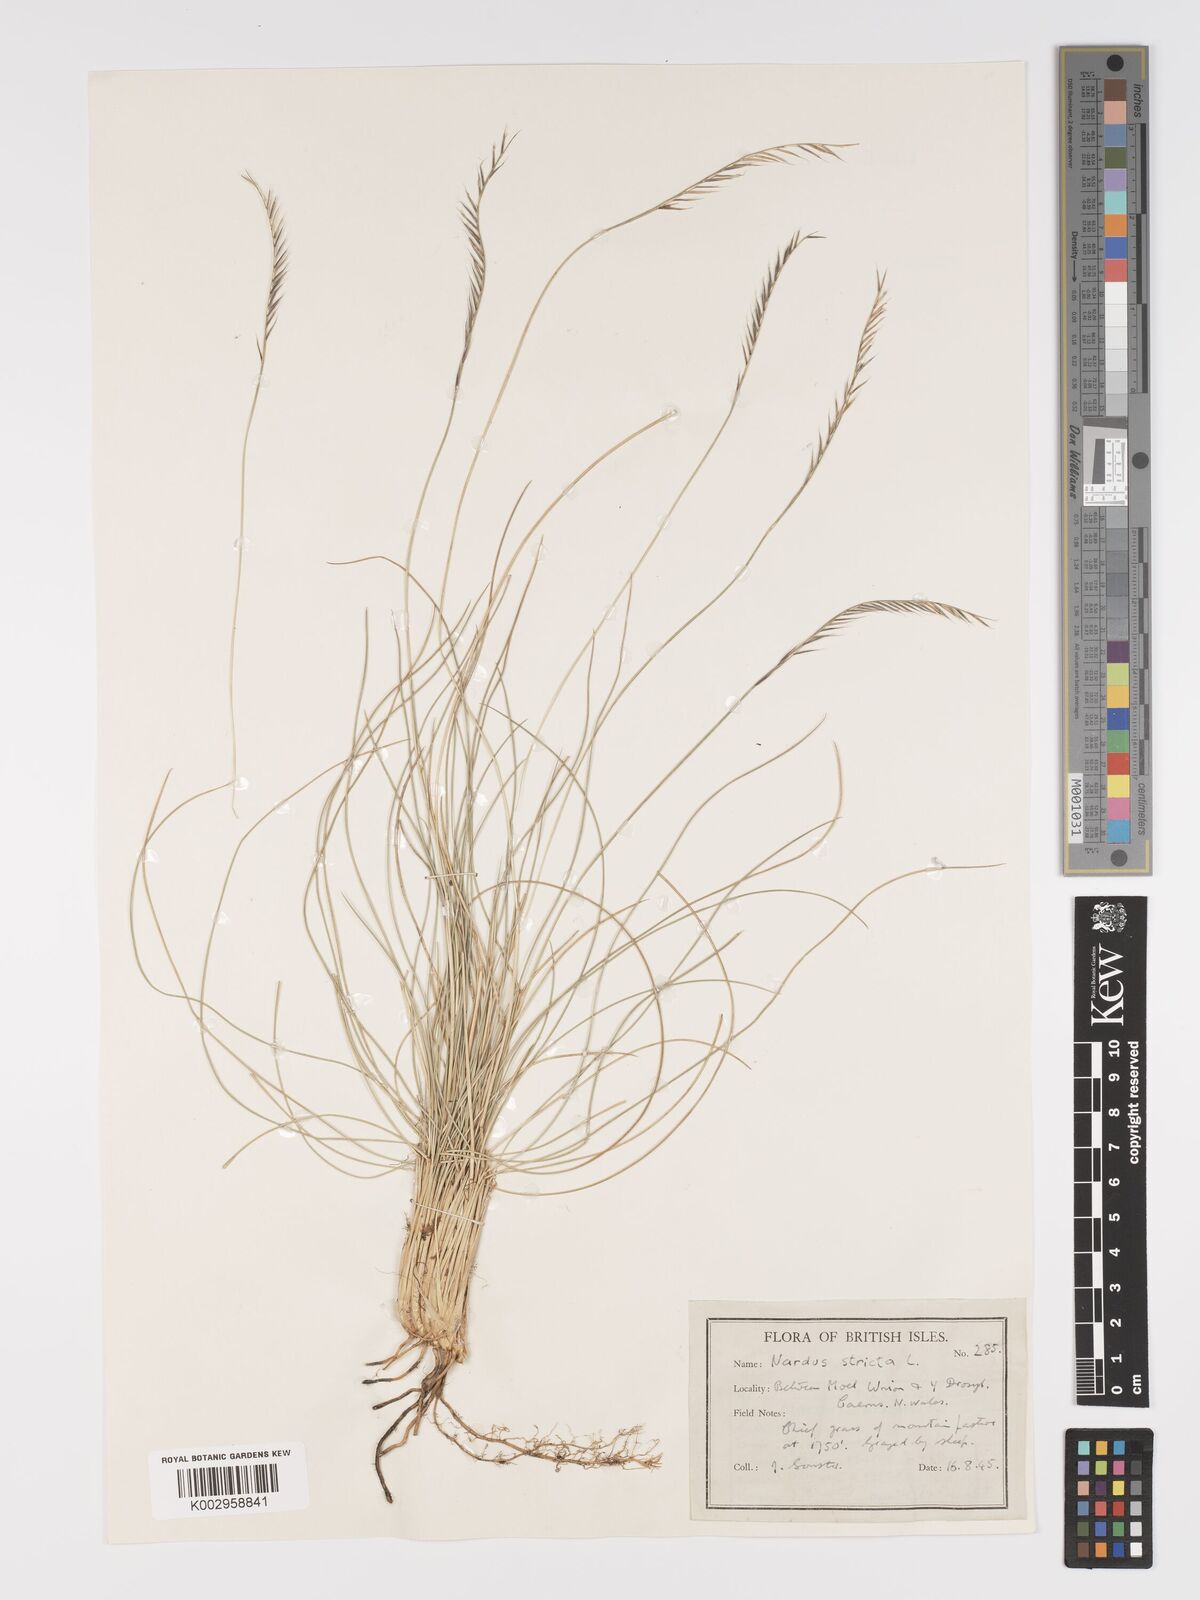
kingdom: Plantae
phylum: Tracheophyta
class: Liliopsida
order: Poales
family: Poaceae
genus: Nardus
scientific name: Nardus stricta
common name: Mat-grass
